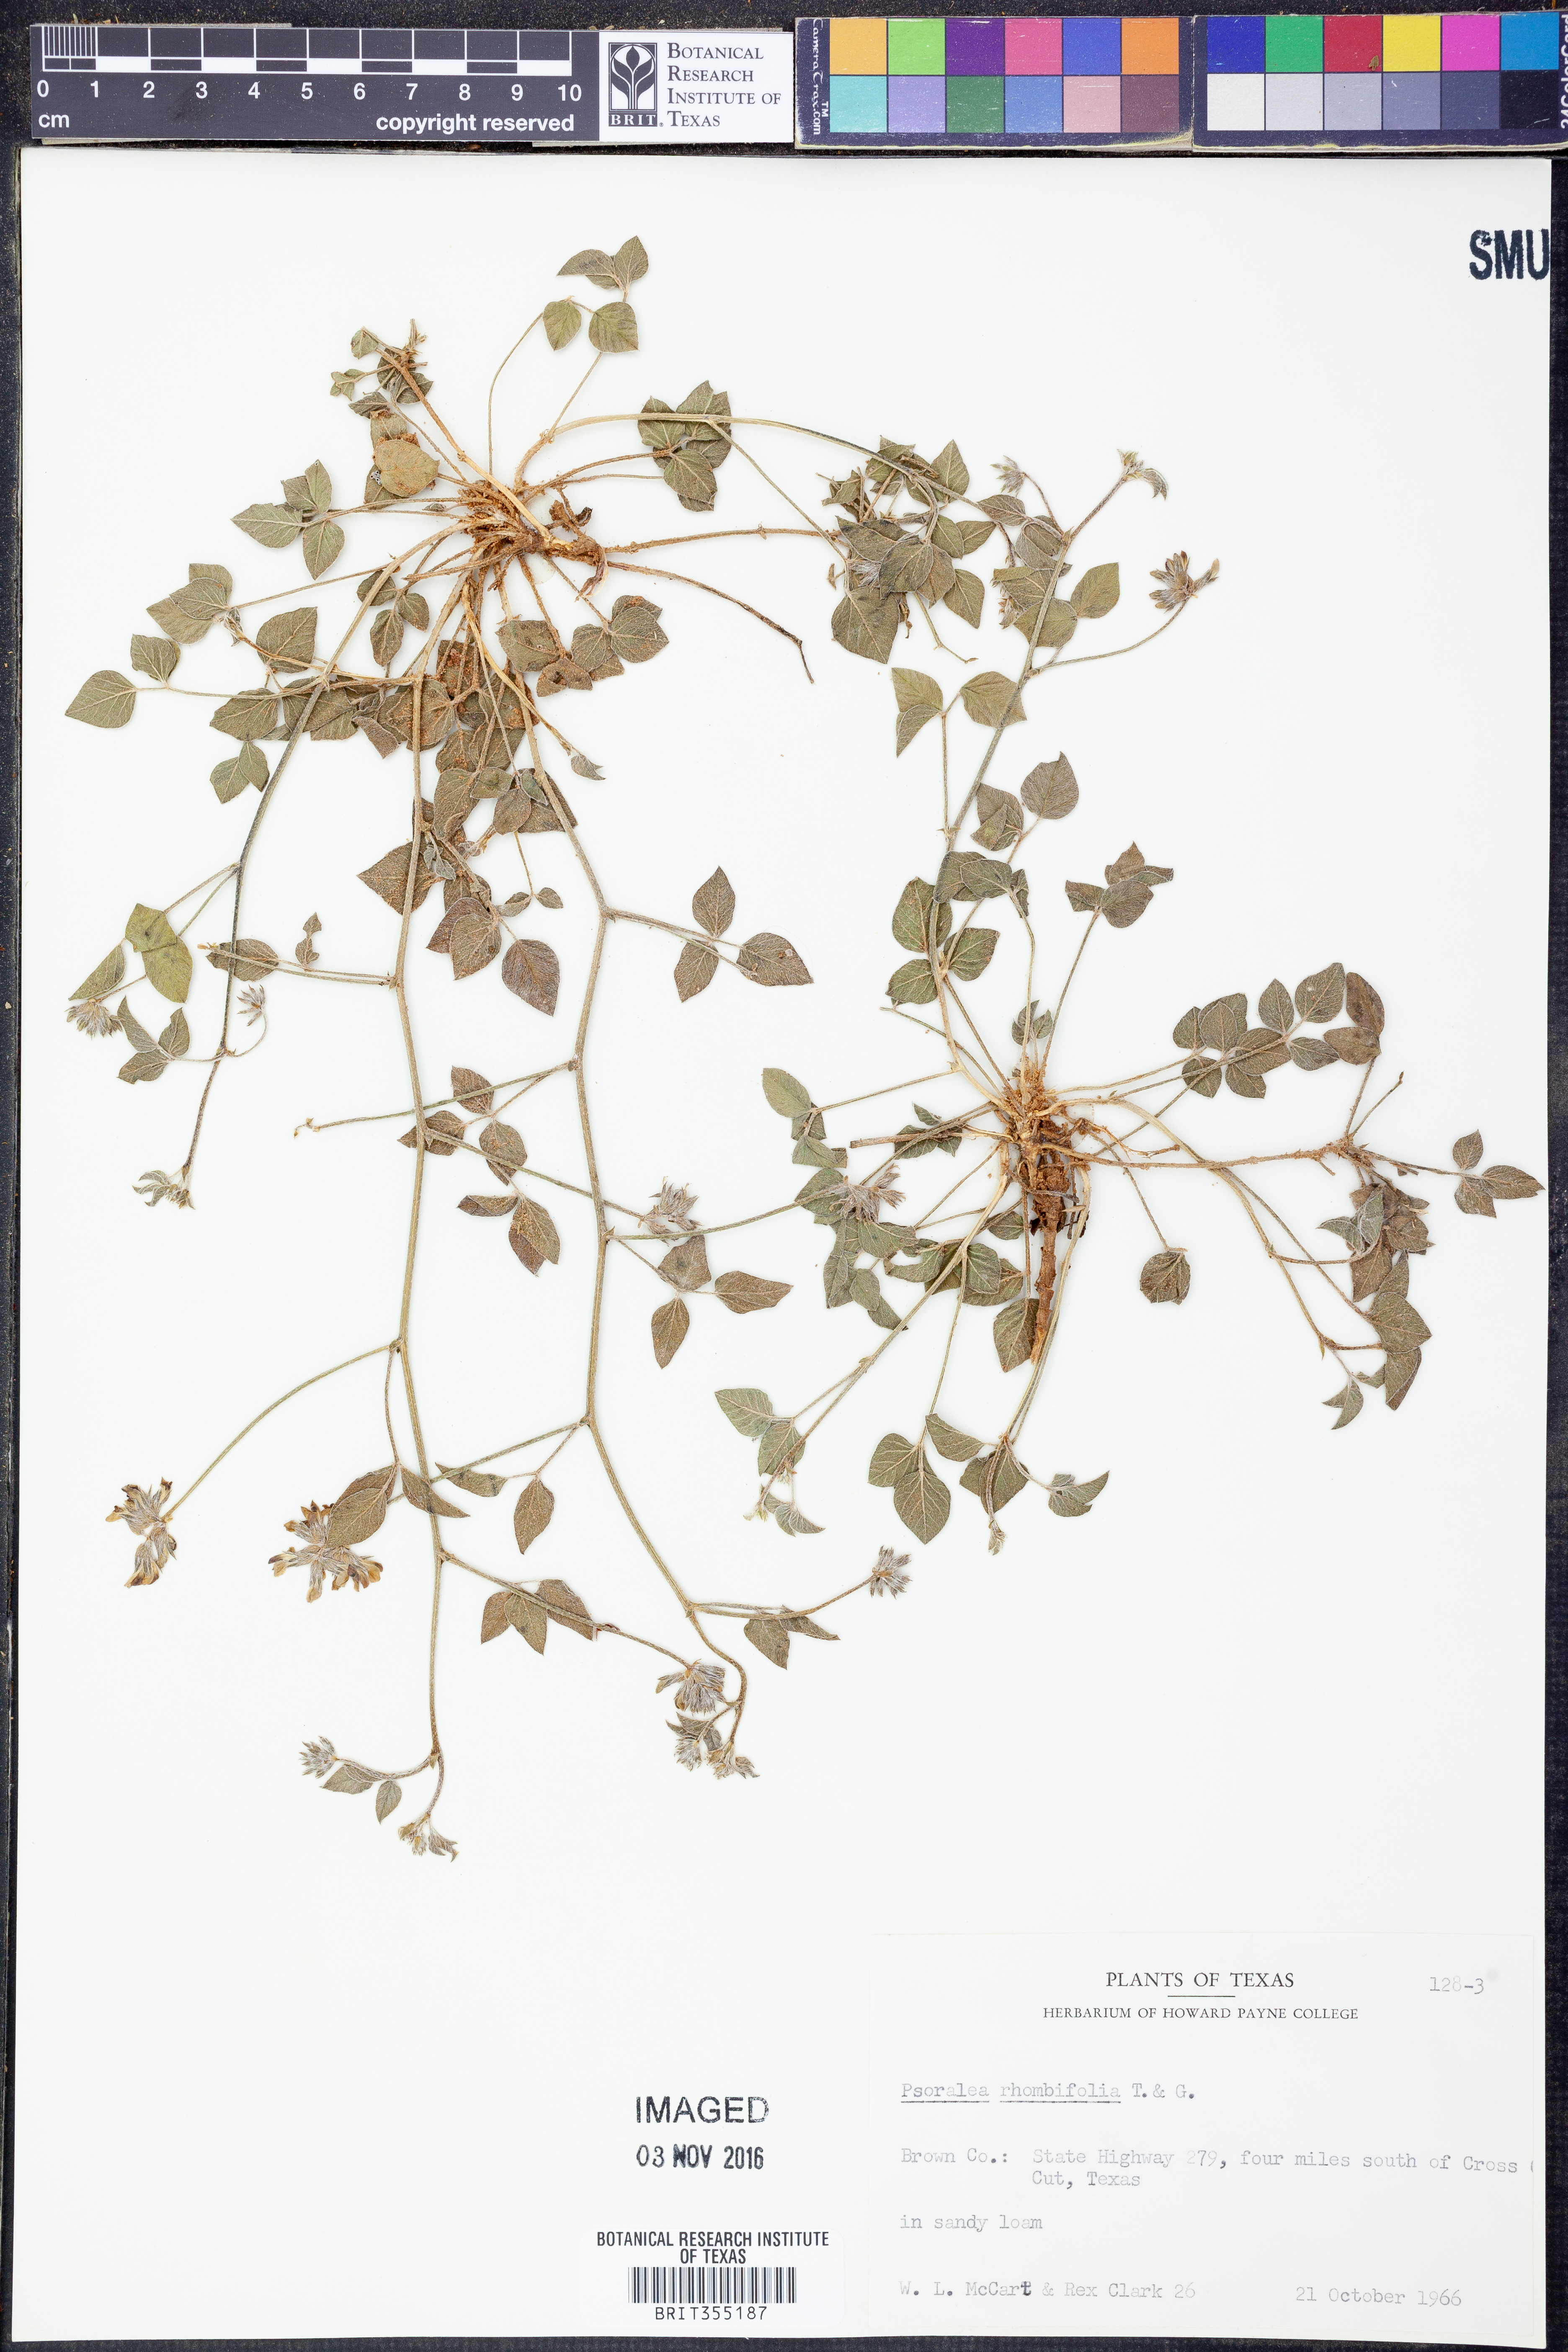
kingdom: Plantae
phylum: Tracheophyta
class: Magnoliopsida
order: Fabales
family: Fabaceae
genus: Pediomelum
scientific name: Pediomelum rhombifolium
